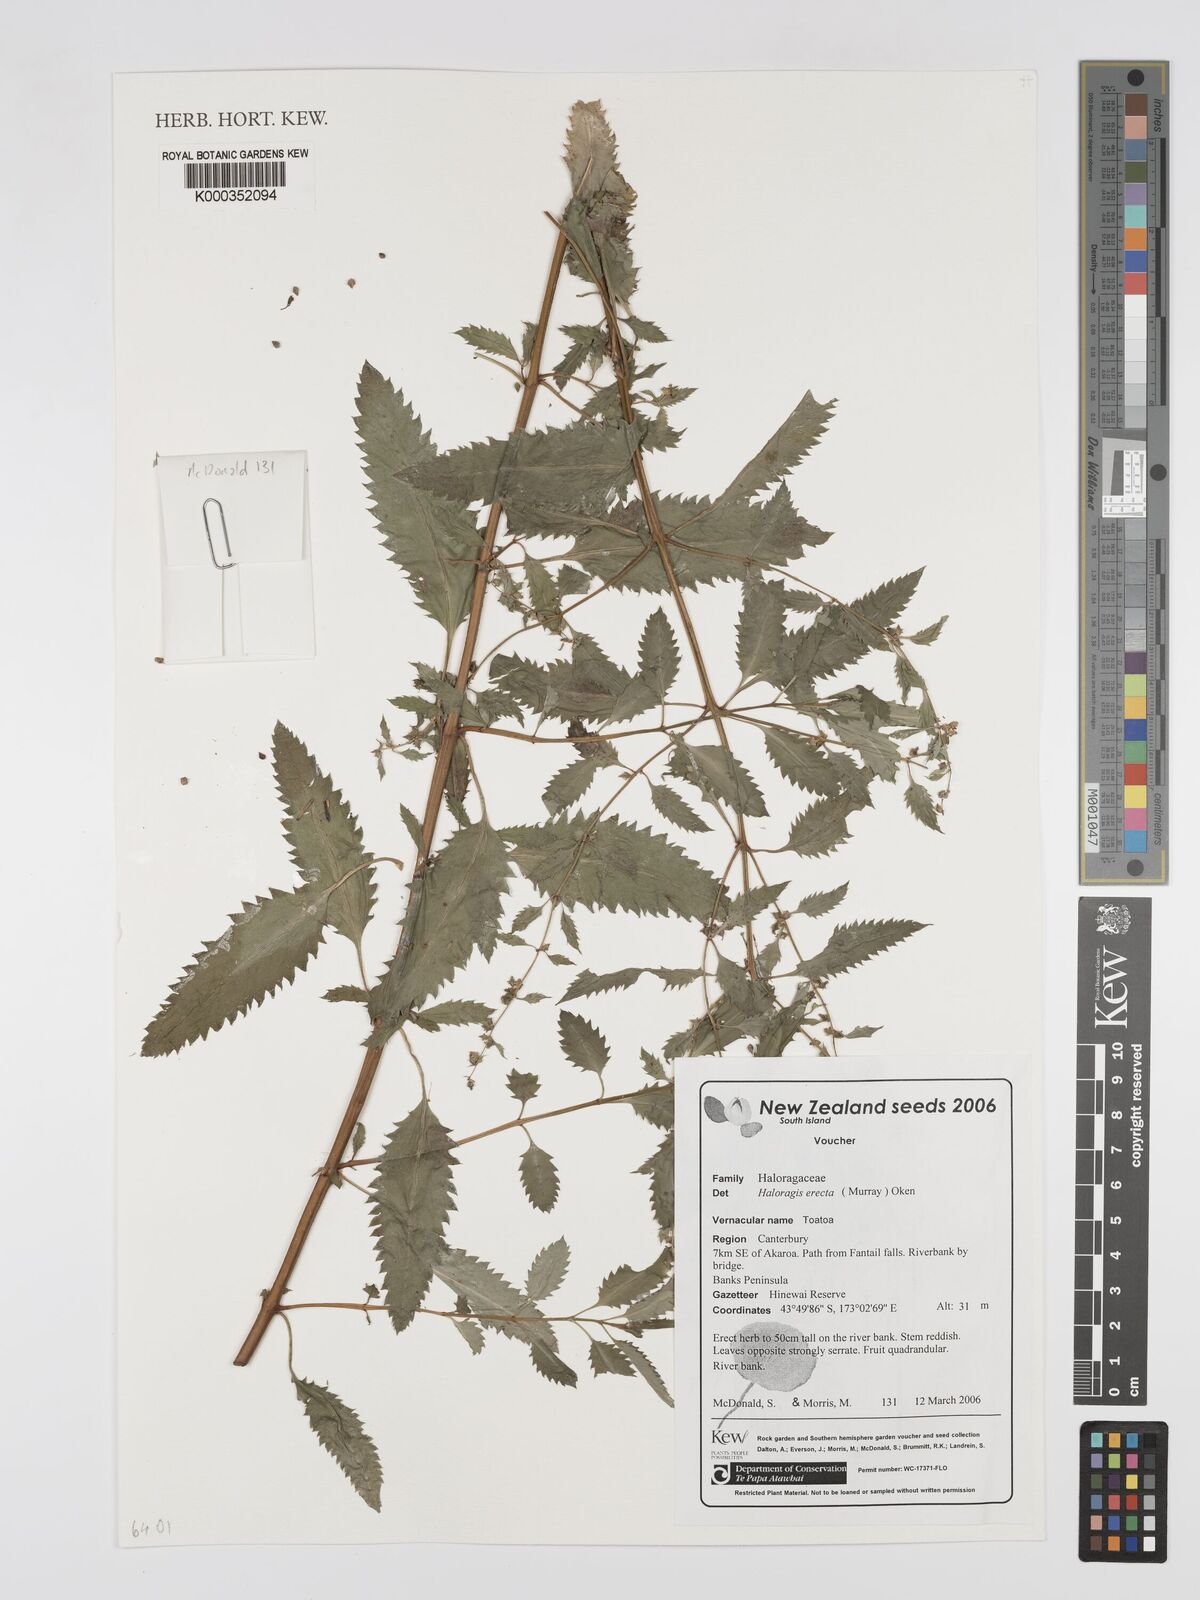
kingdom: Plantae
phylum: Tracheophyta
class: Magnoliopsida
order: Saxifragales
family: Haloragaceae
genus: Haloragis
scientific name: Haloragis erecta
